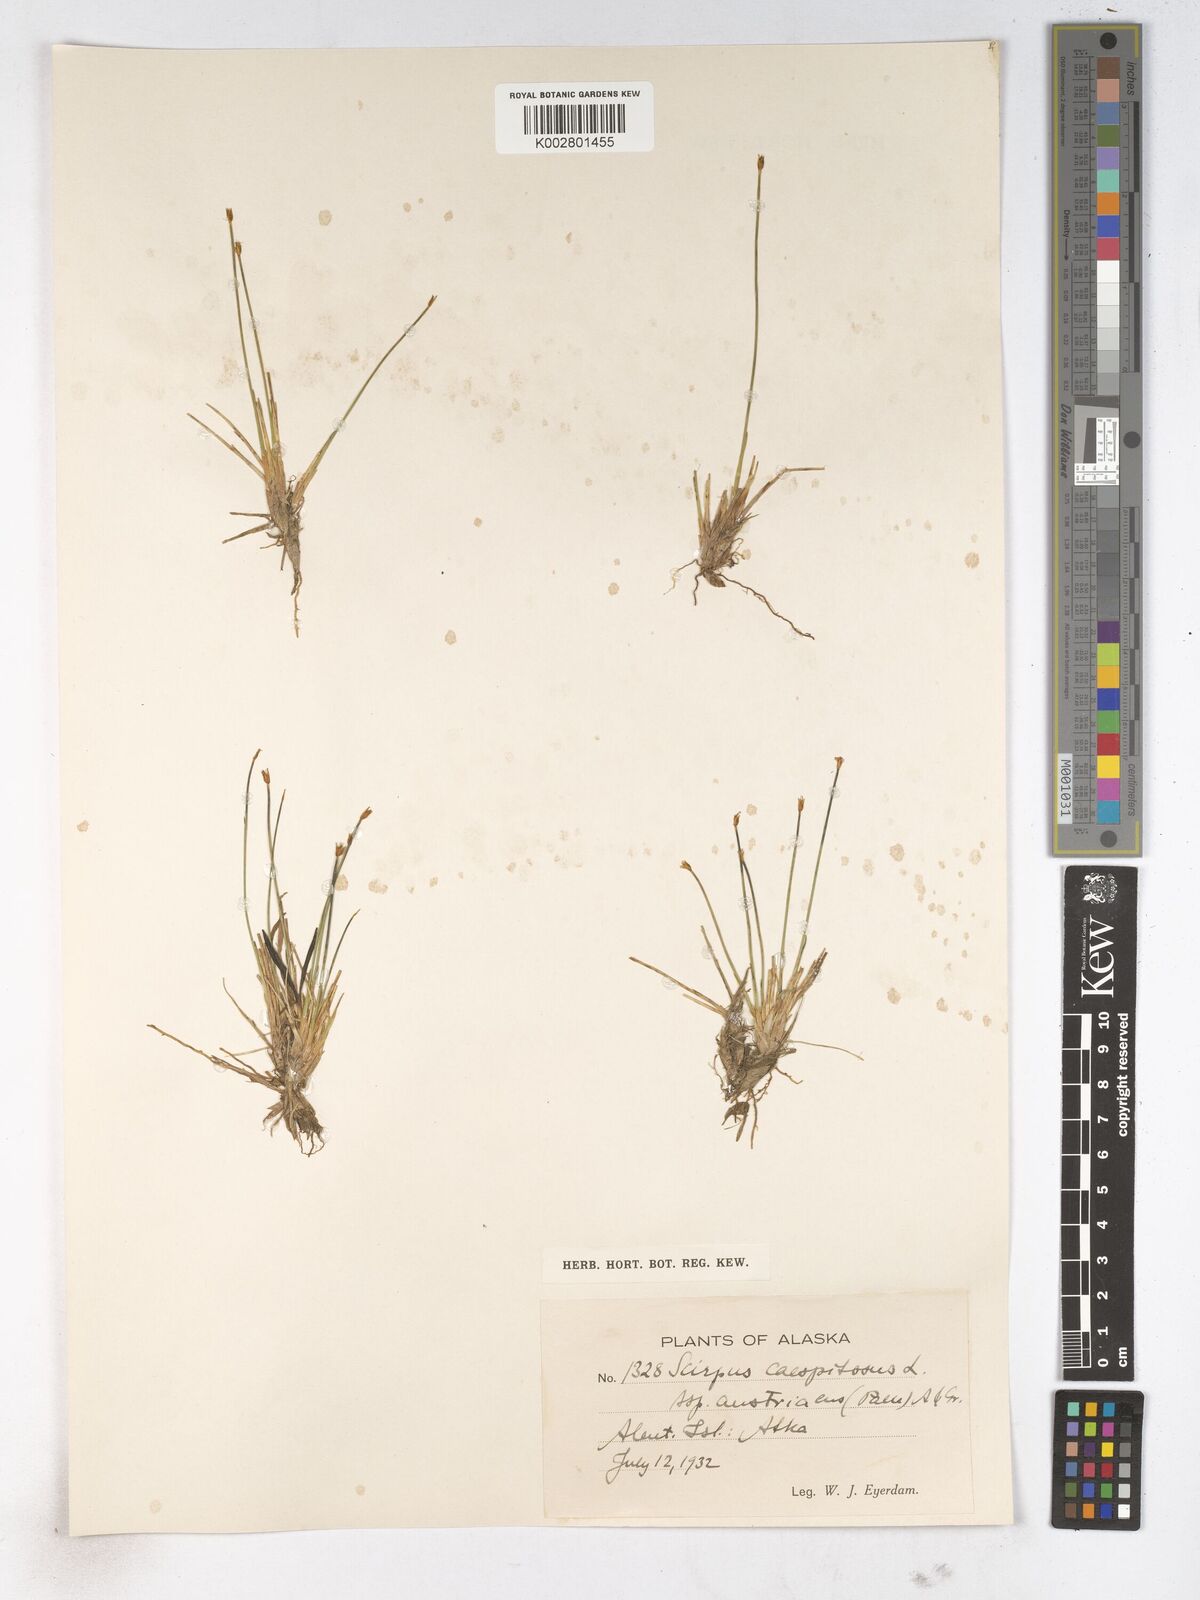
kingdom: Plantae
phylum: Tracheophyta
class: Liliopsida
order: Poales
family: Cyperaceae
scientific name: Cyperaceae
